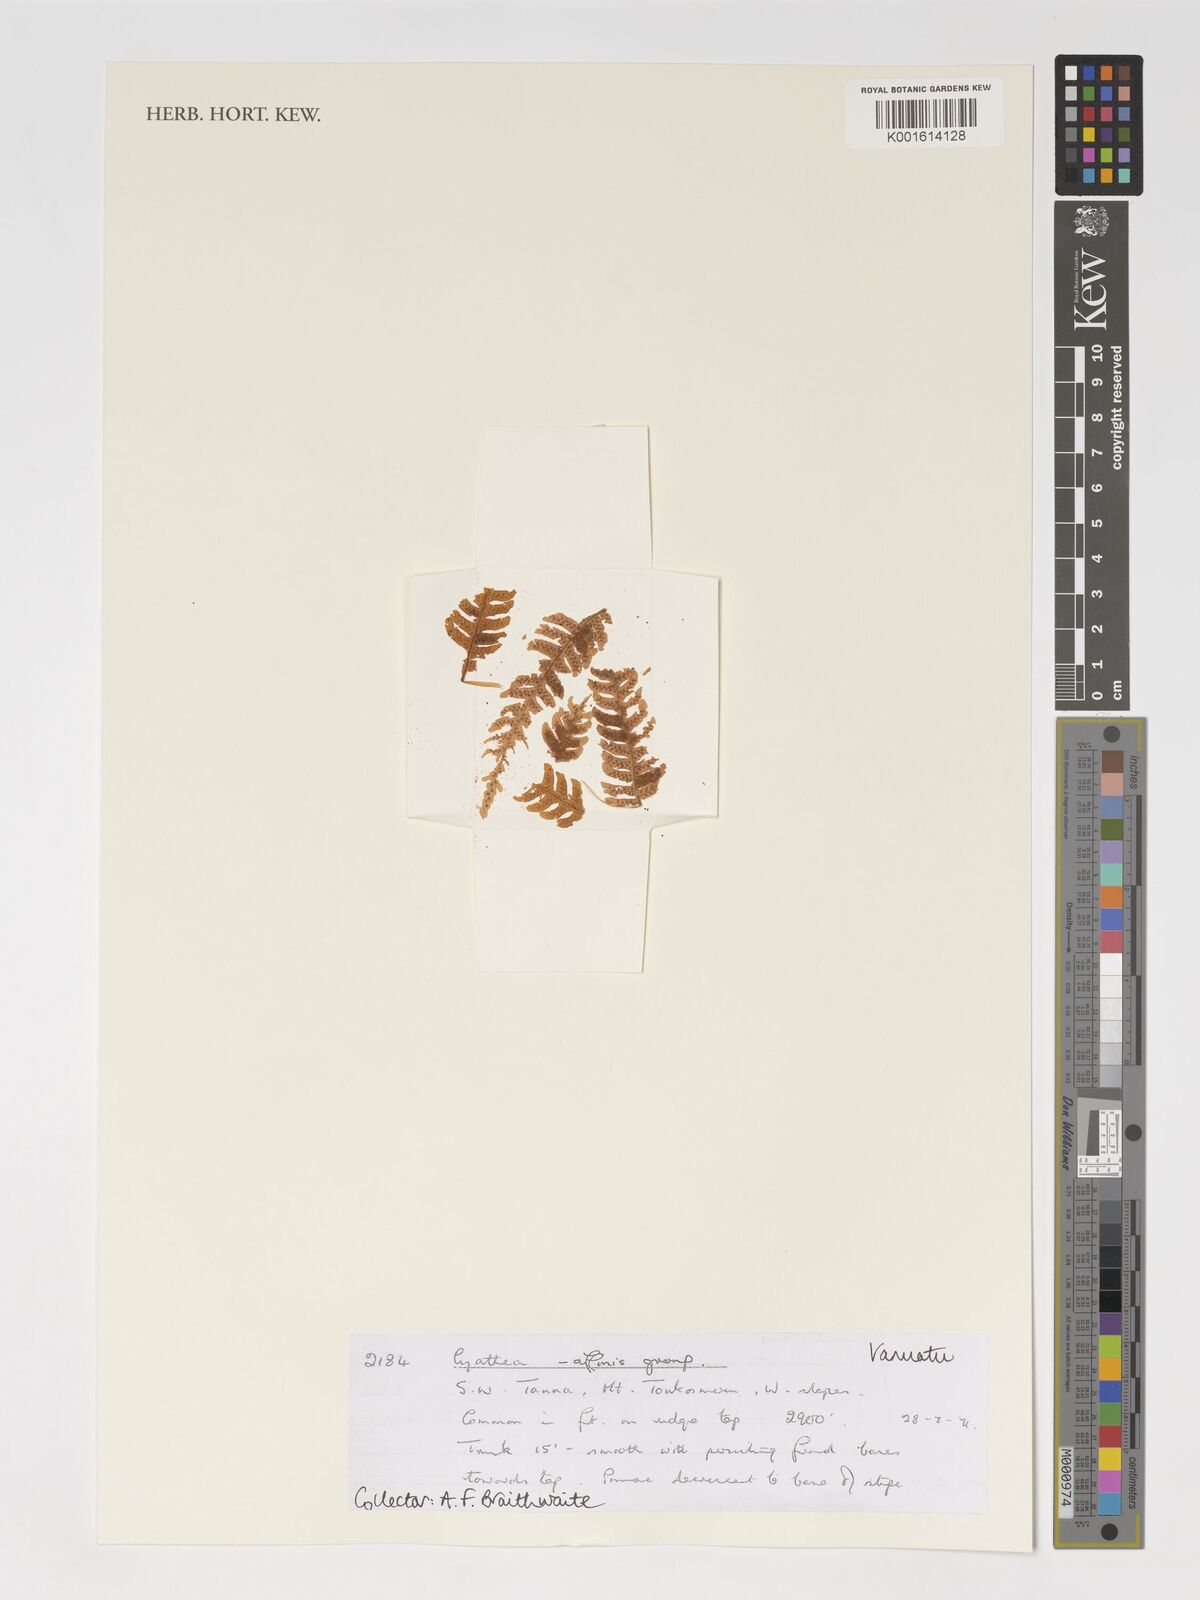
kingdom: Plantae
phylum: Tracheophyta
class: Polypodiopsida
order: Cyatheales
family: Cyatheaceae
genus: Cyathea
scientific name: Cyathea
